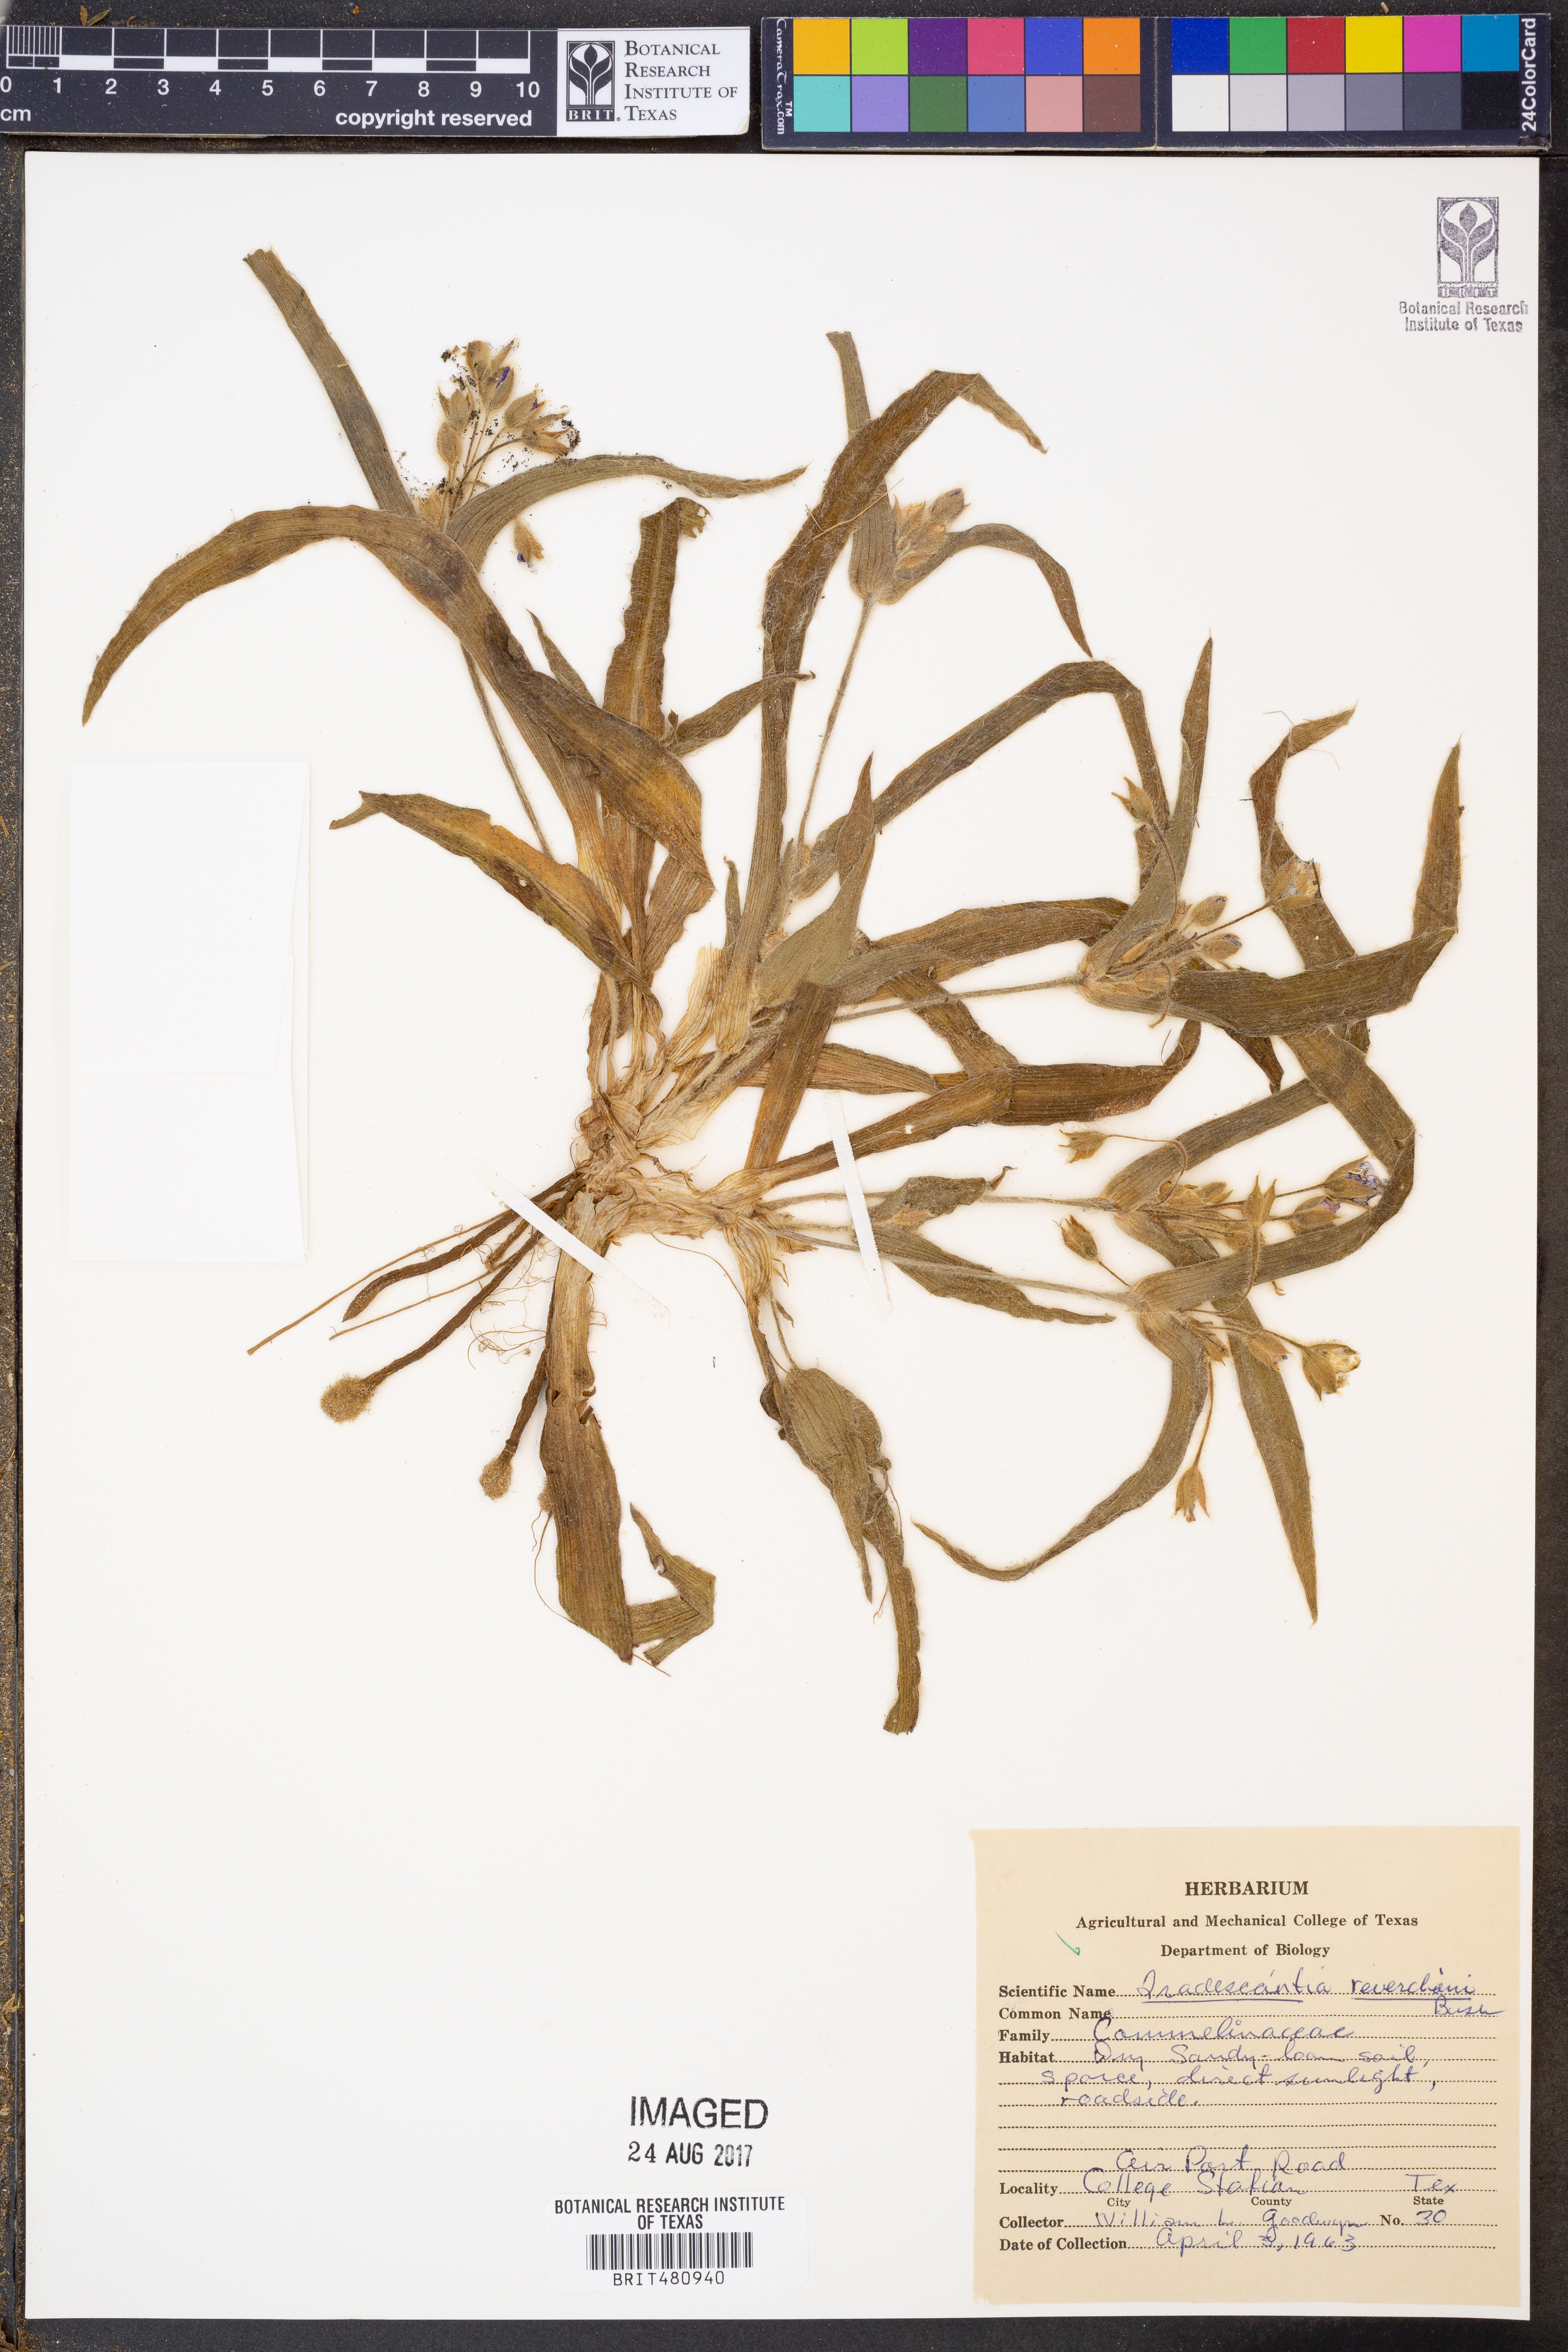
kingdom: Plantae
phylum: Tracheophyta
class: Liliopsida
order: Commelinales
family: Commelinaceae
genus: Tradescantia
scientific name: Tradescantia reverchonii
